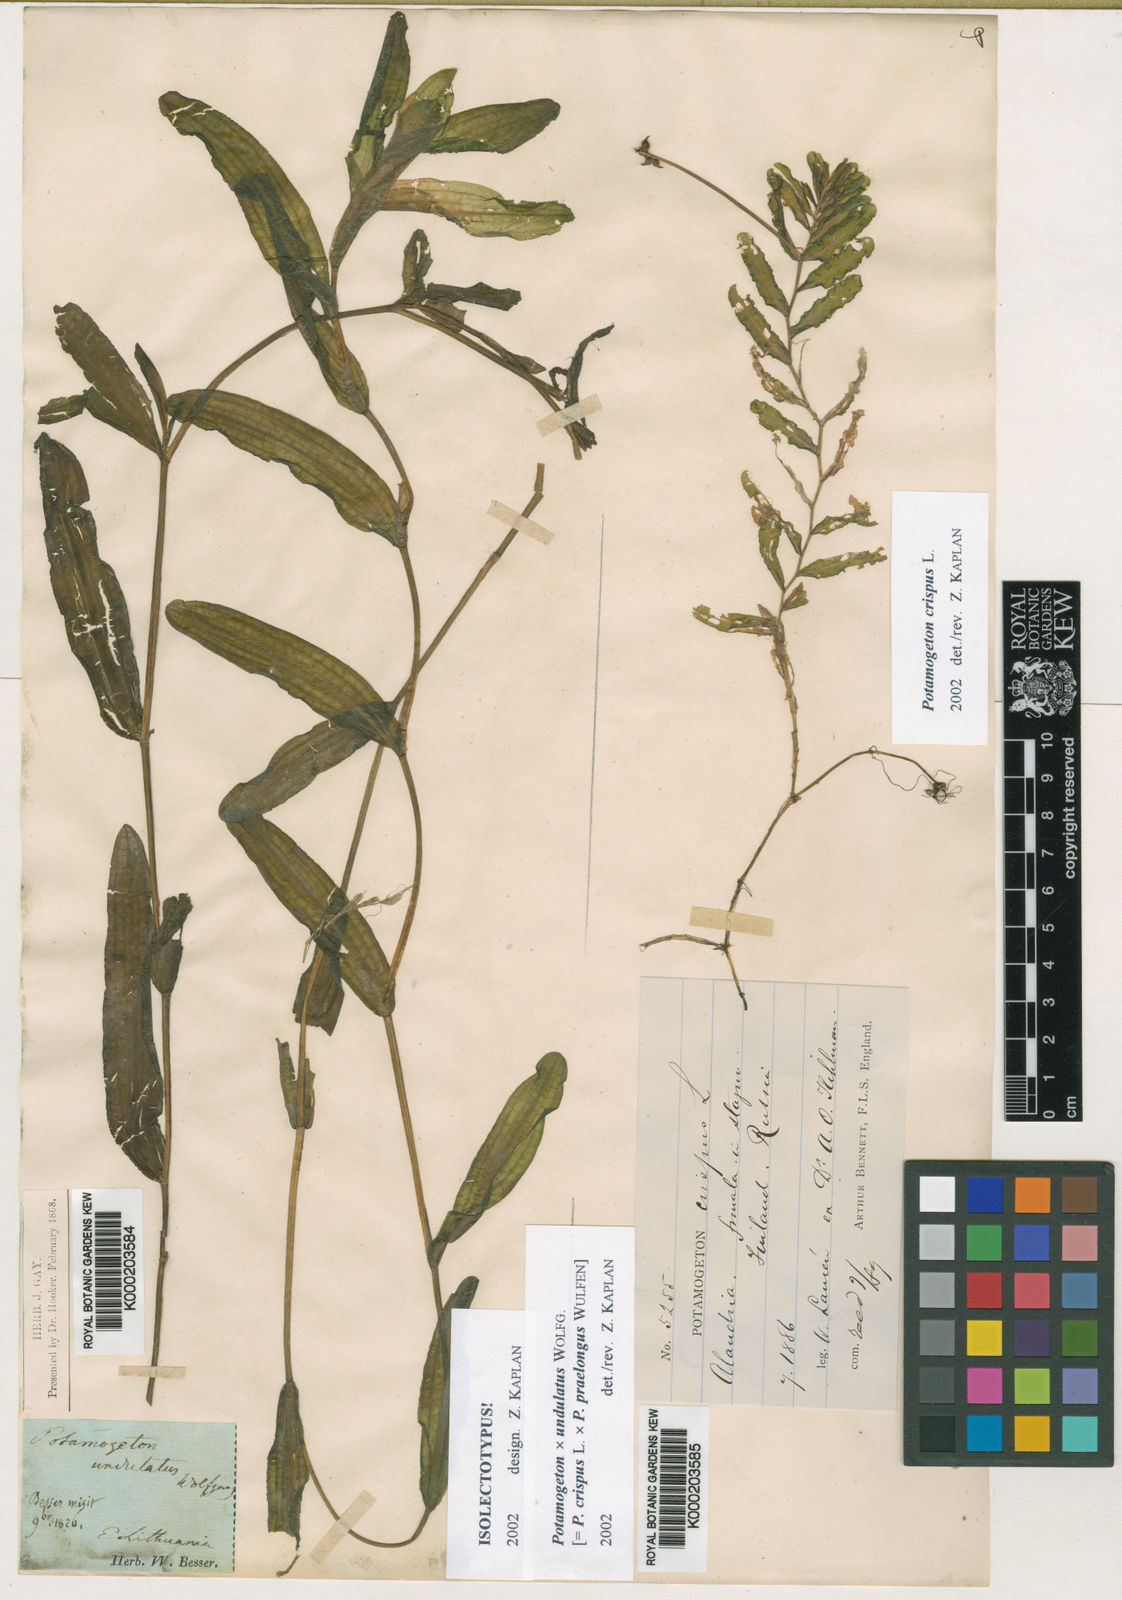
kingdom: Plantae
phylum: Tracheophyta
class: Liliopsida
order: Alismatales
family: Potamogetonaceae
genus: Potamogeton
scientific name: Potamogeton crispus
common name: Curled pondweed
